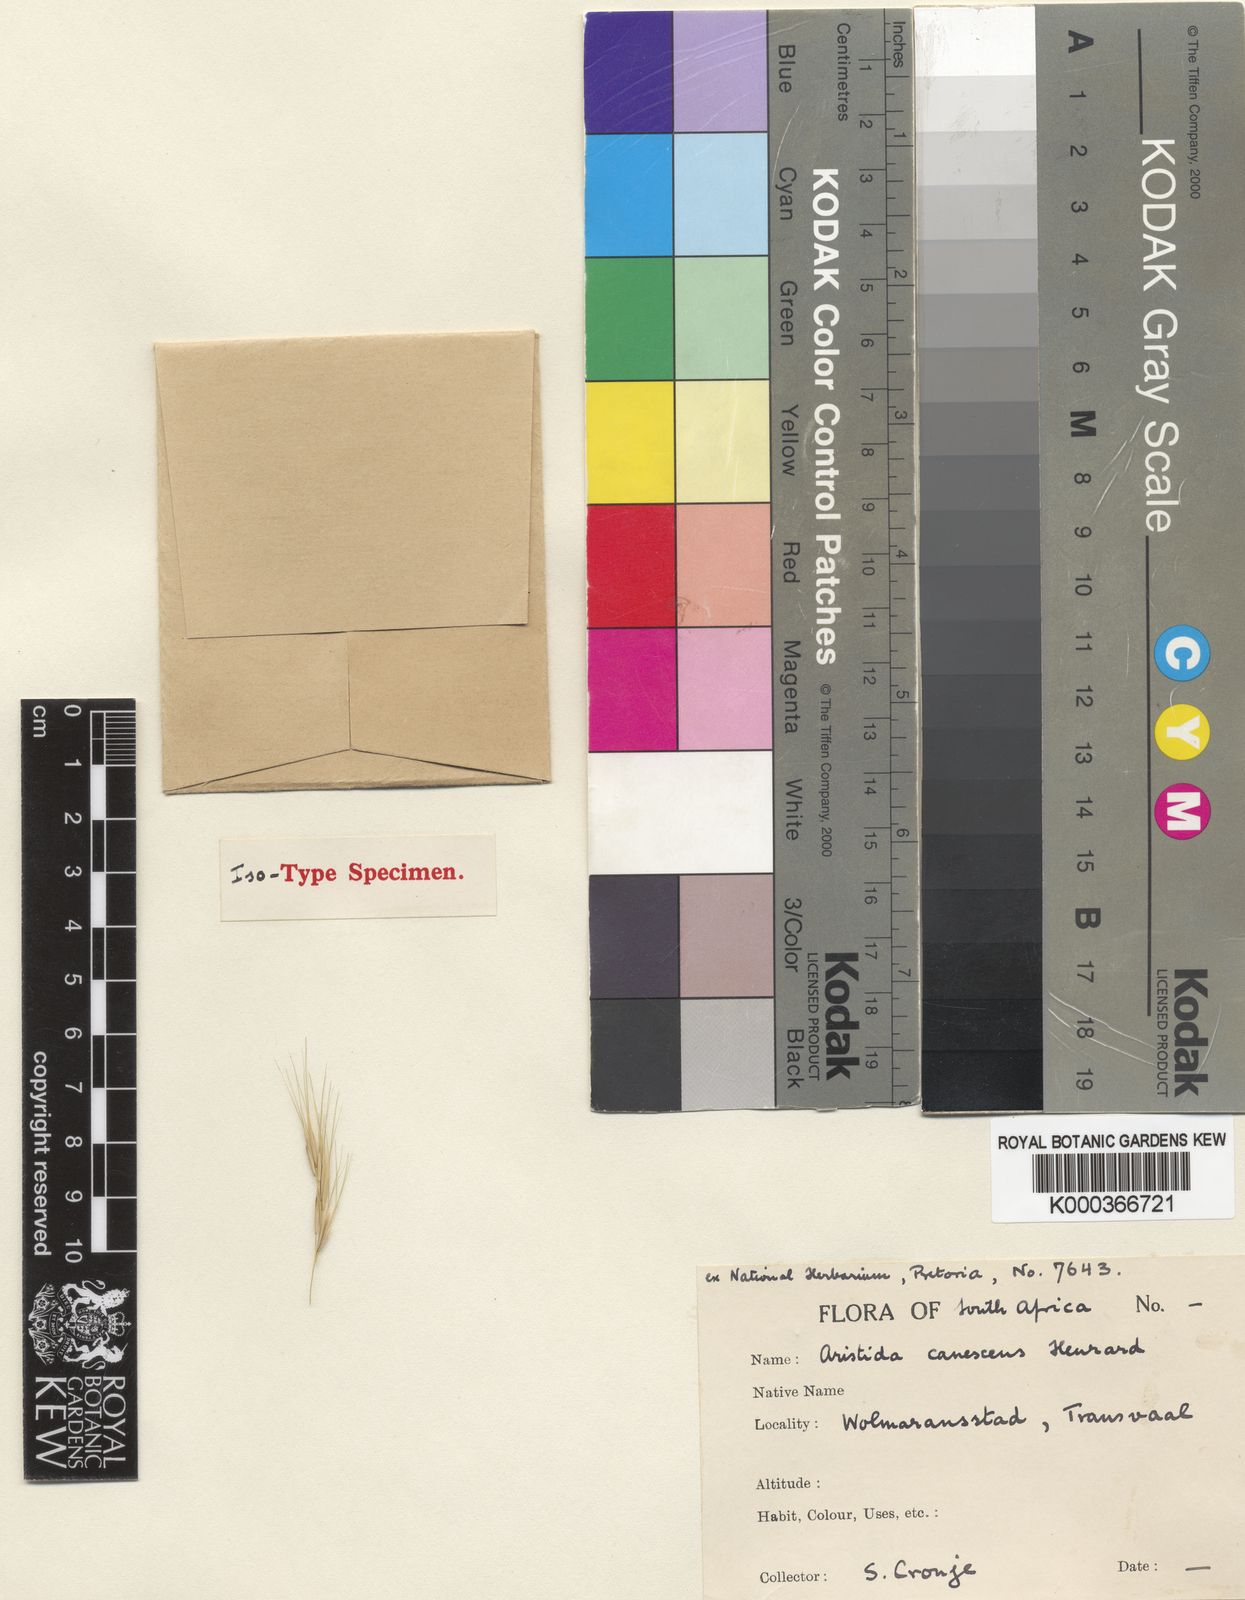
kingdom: Plantae
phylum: Tracheophyta
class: Liliopsida
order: Poales
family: Poaceae
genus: Aristida
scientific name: Aristida nemorivaga
